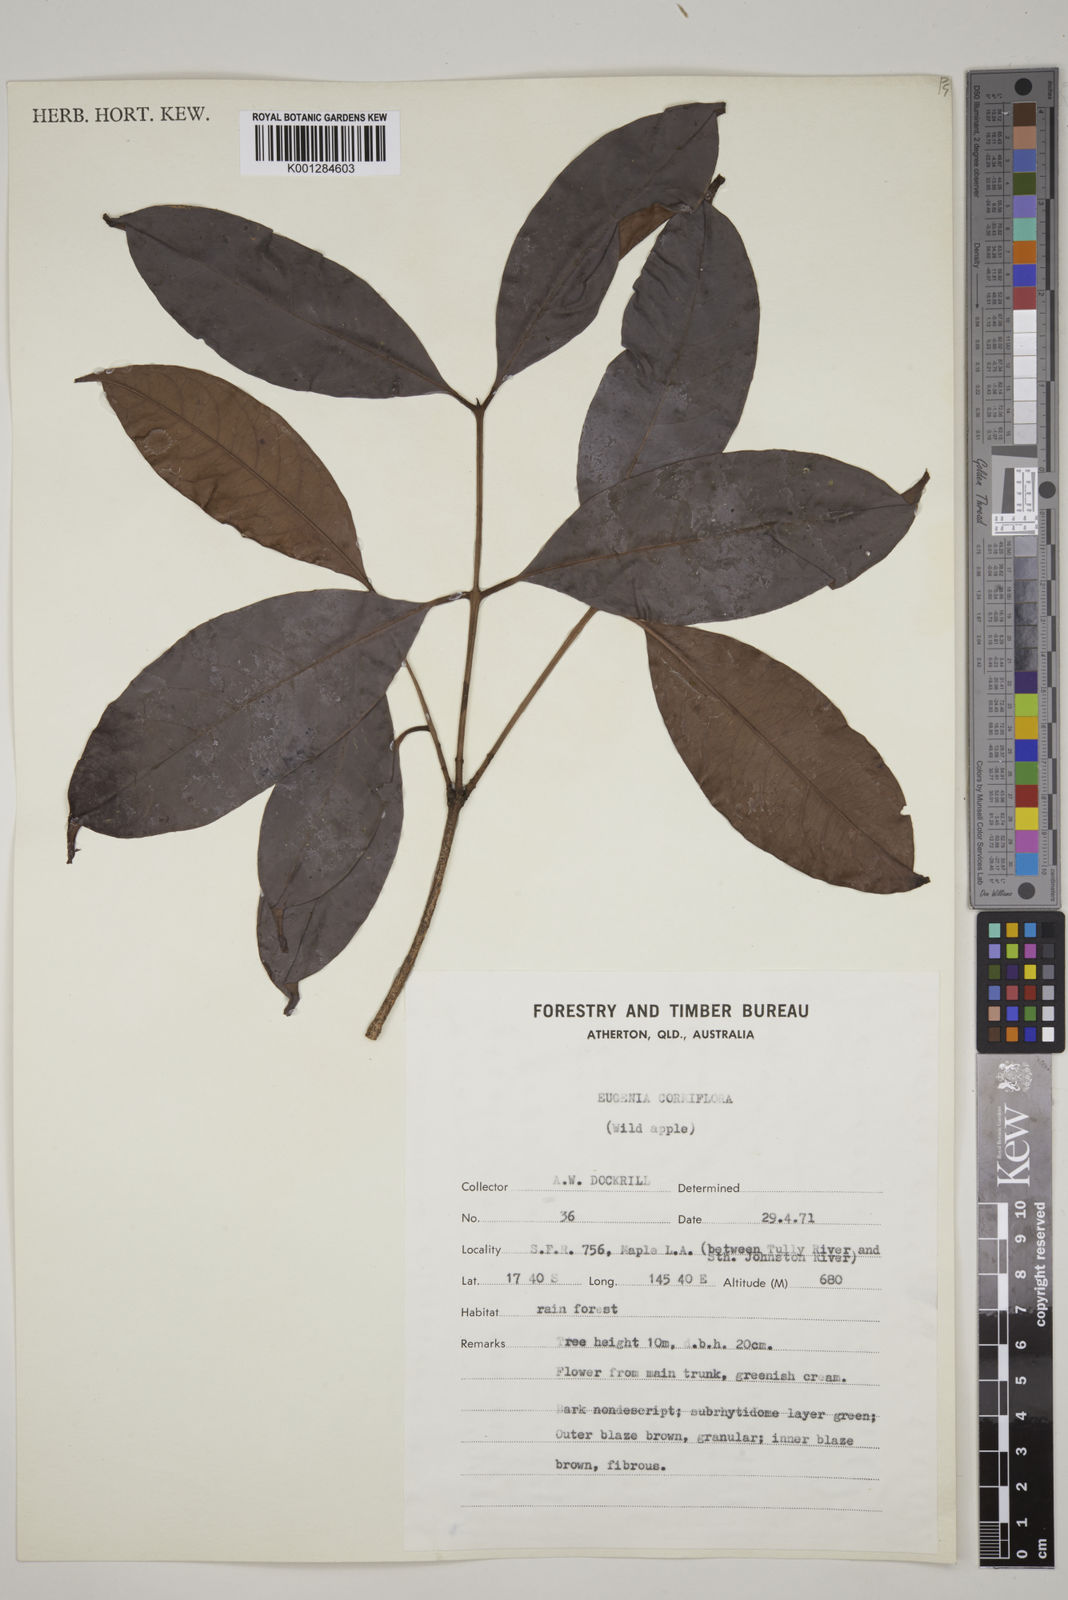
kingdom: Plantae
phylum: Tracheophyta
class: Magnoliopsida
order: Myrtales
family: Myrtaceae
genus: Syzygium
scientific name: Syzygium cormiflorum
